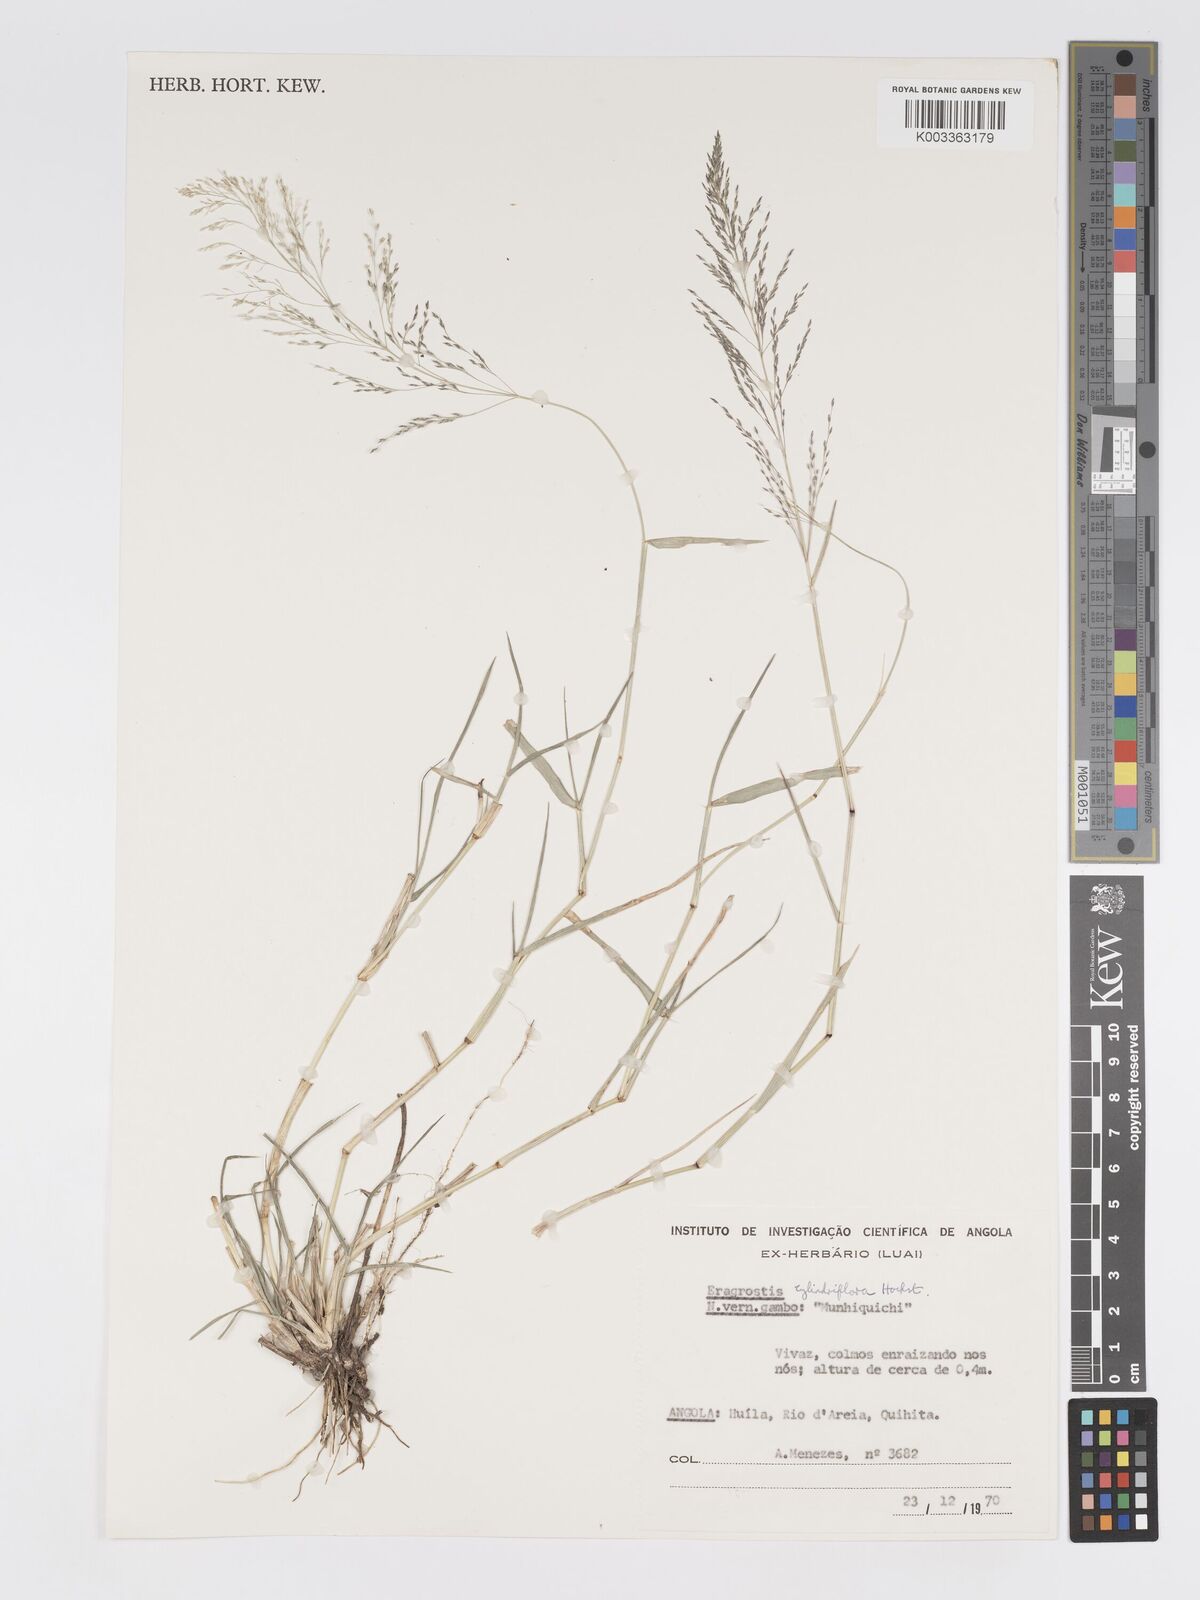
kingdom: Plantae
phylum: Tracheophyta
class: Liliopsida
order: Poales
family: Poaceae
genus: Eragrostis
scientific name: Eragrostis cylindriflora
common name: Cylinderflower lovegrass
